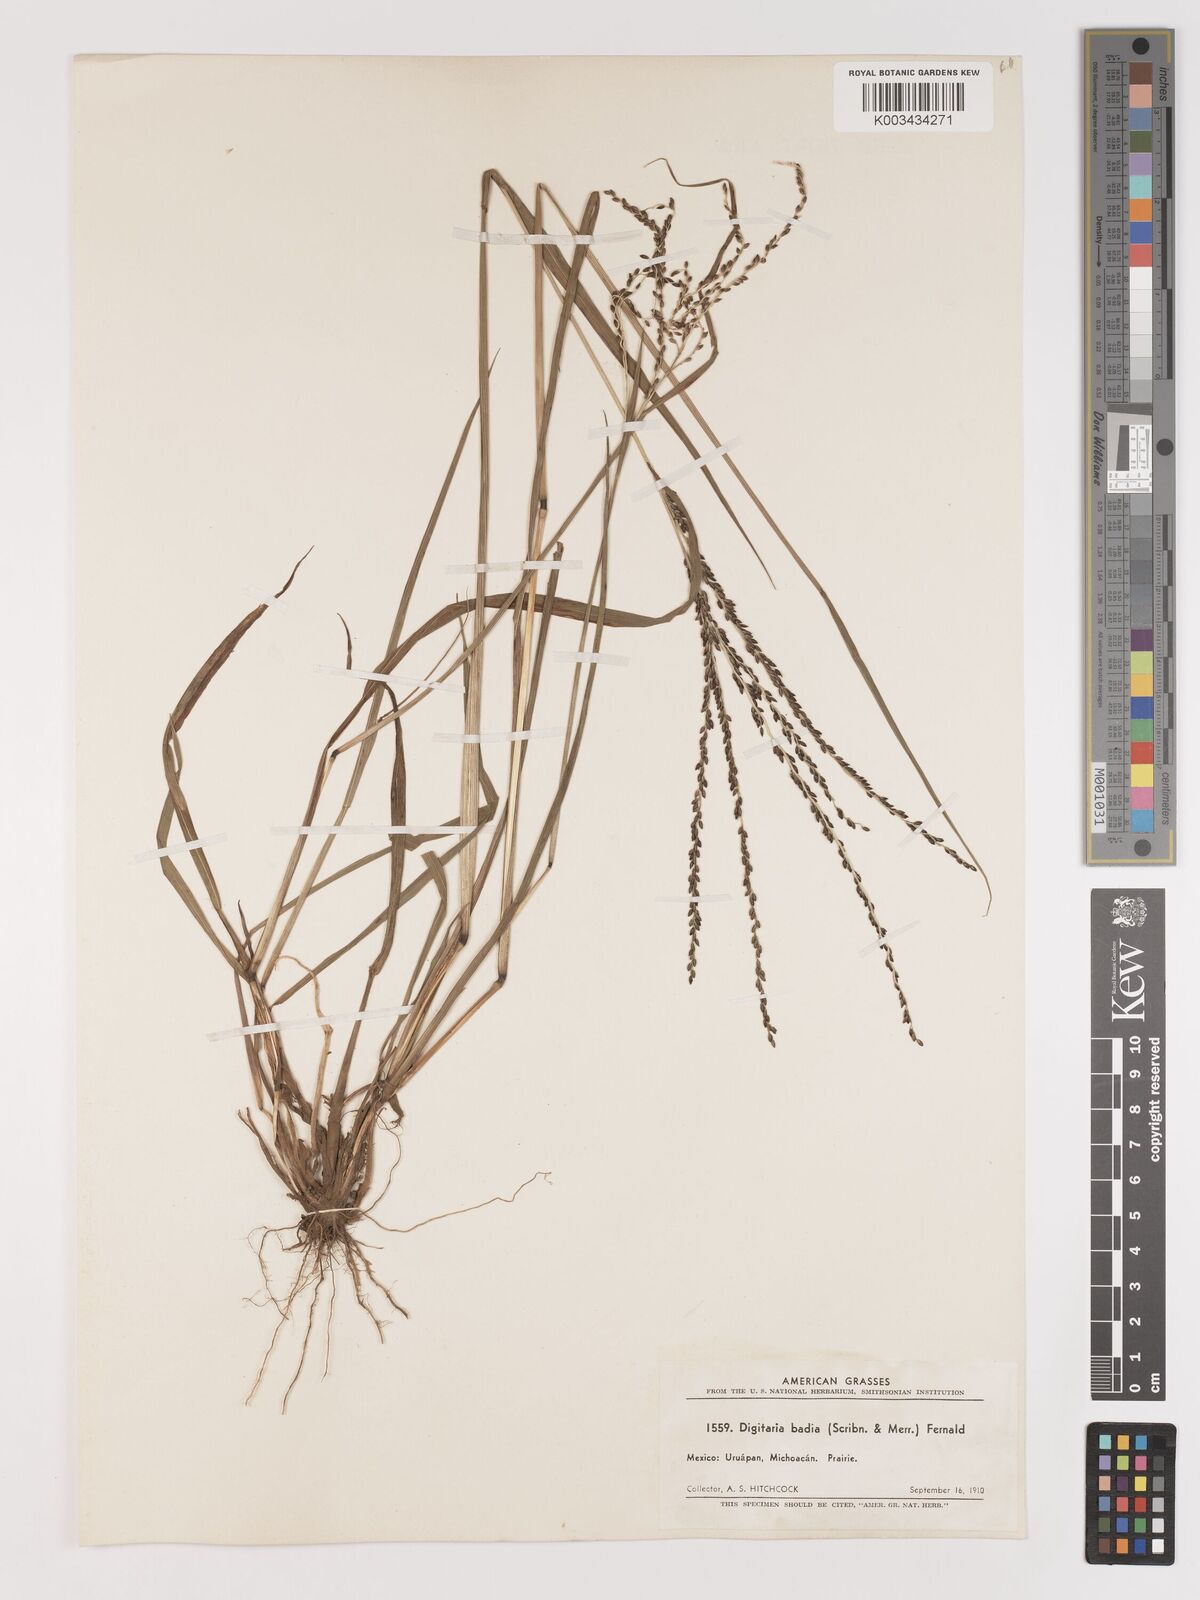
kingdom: Plantae
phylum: Tracheophyta
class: Liliopsida
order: Poales
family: Poaceae
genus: Digitaria
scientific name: Digitaria badia
